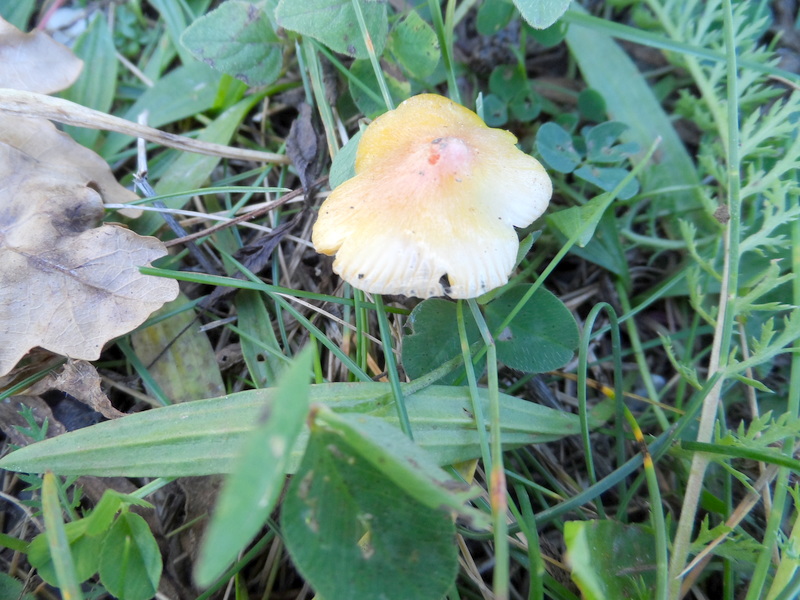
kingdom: Fungi
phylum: Basidiomycota
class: Agaricomycetes
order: Agaricales
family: Hygrophoraceae
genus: Hygrocybe
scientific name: Hygrocybe acutoconica
